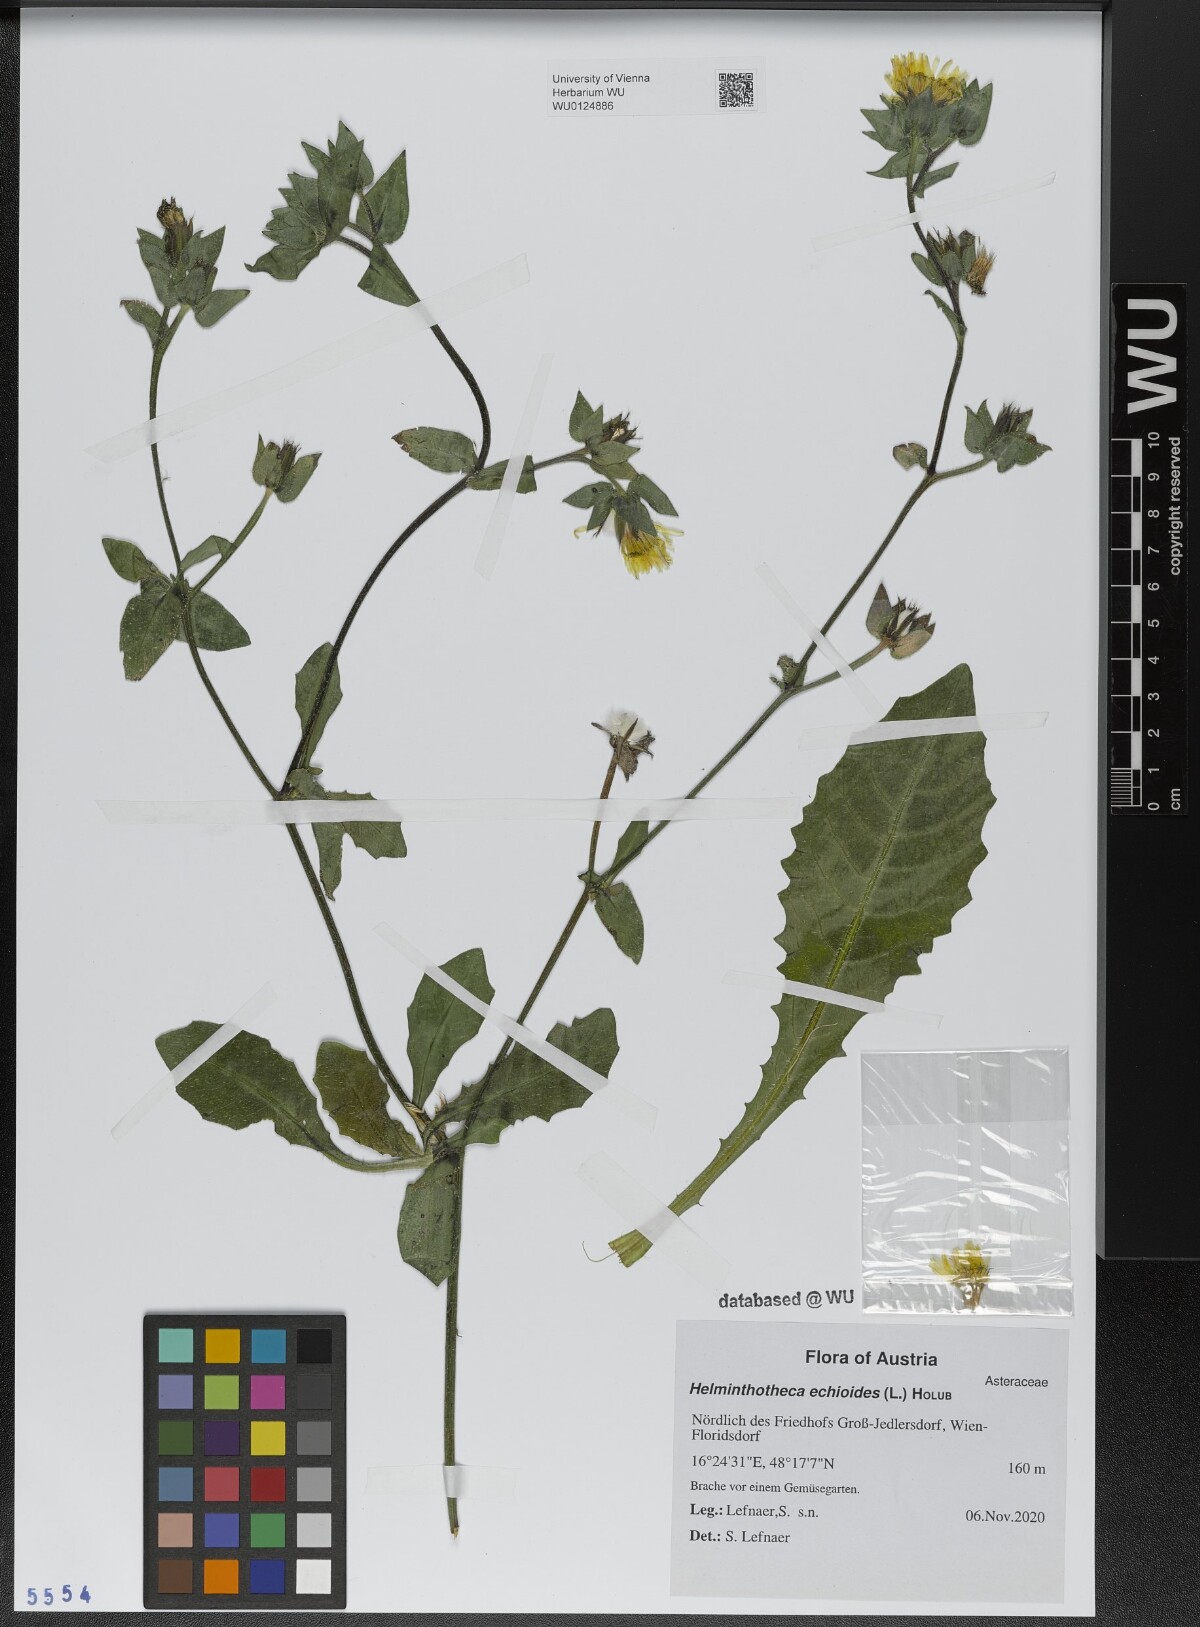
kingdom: Plantae
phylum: Tracheophyta
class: Magnoliopsida
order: Asterales
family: Asteraceae
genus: Helminthotheca
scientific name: Helminthotheca echioides
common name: Ox-tongue
